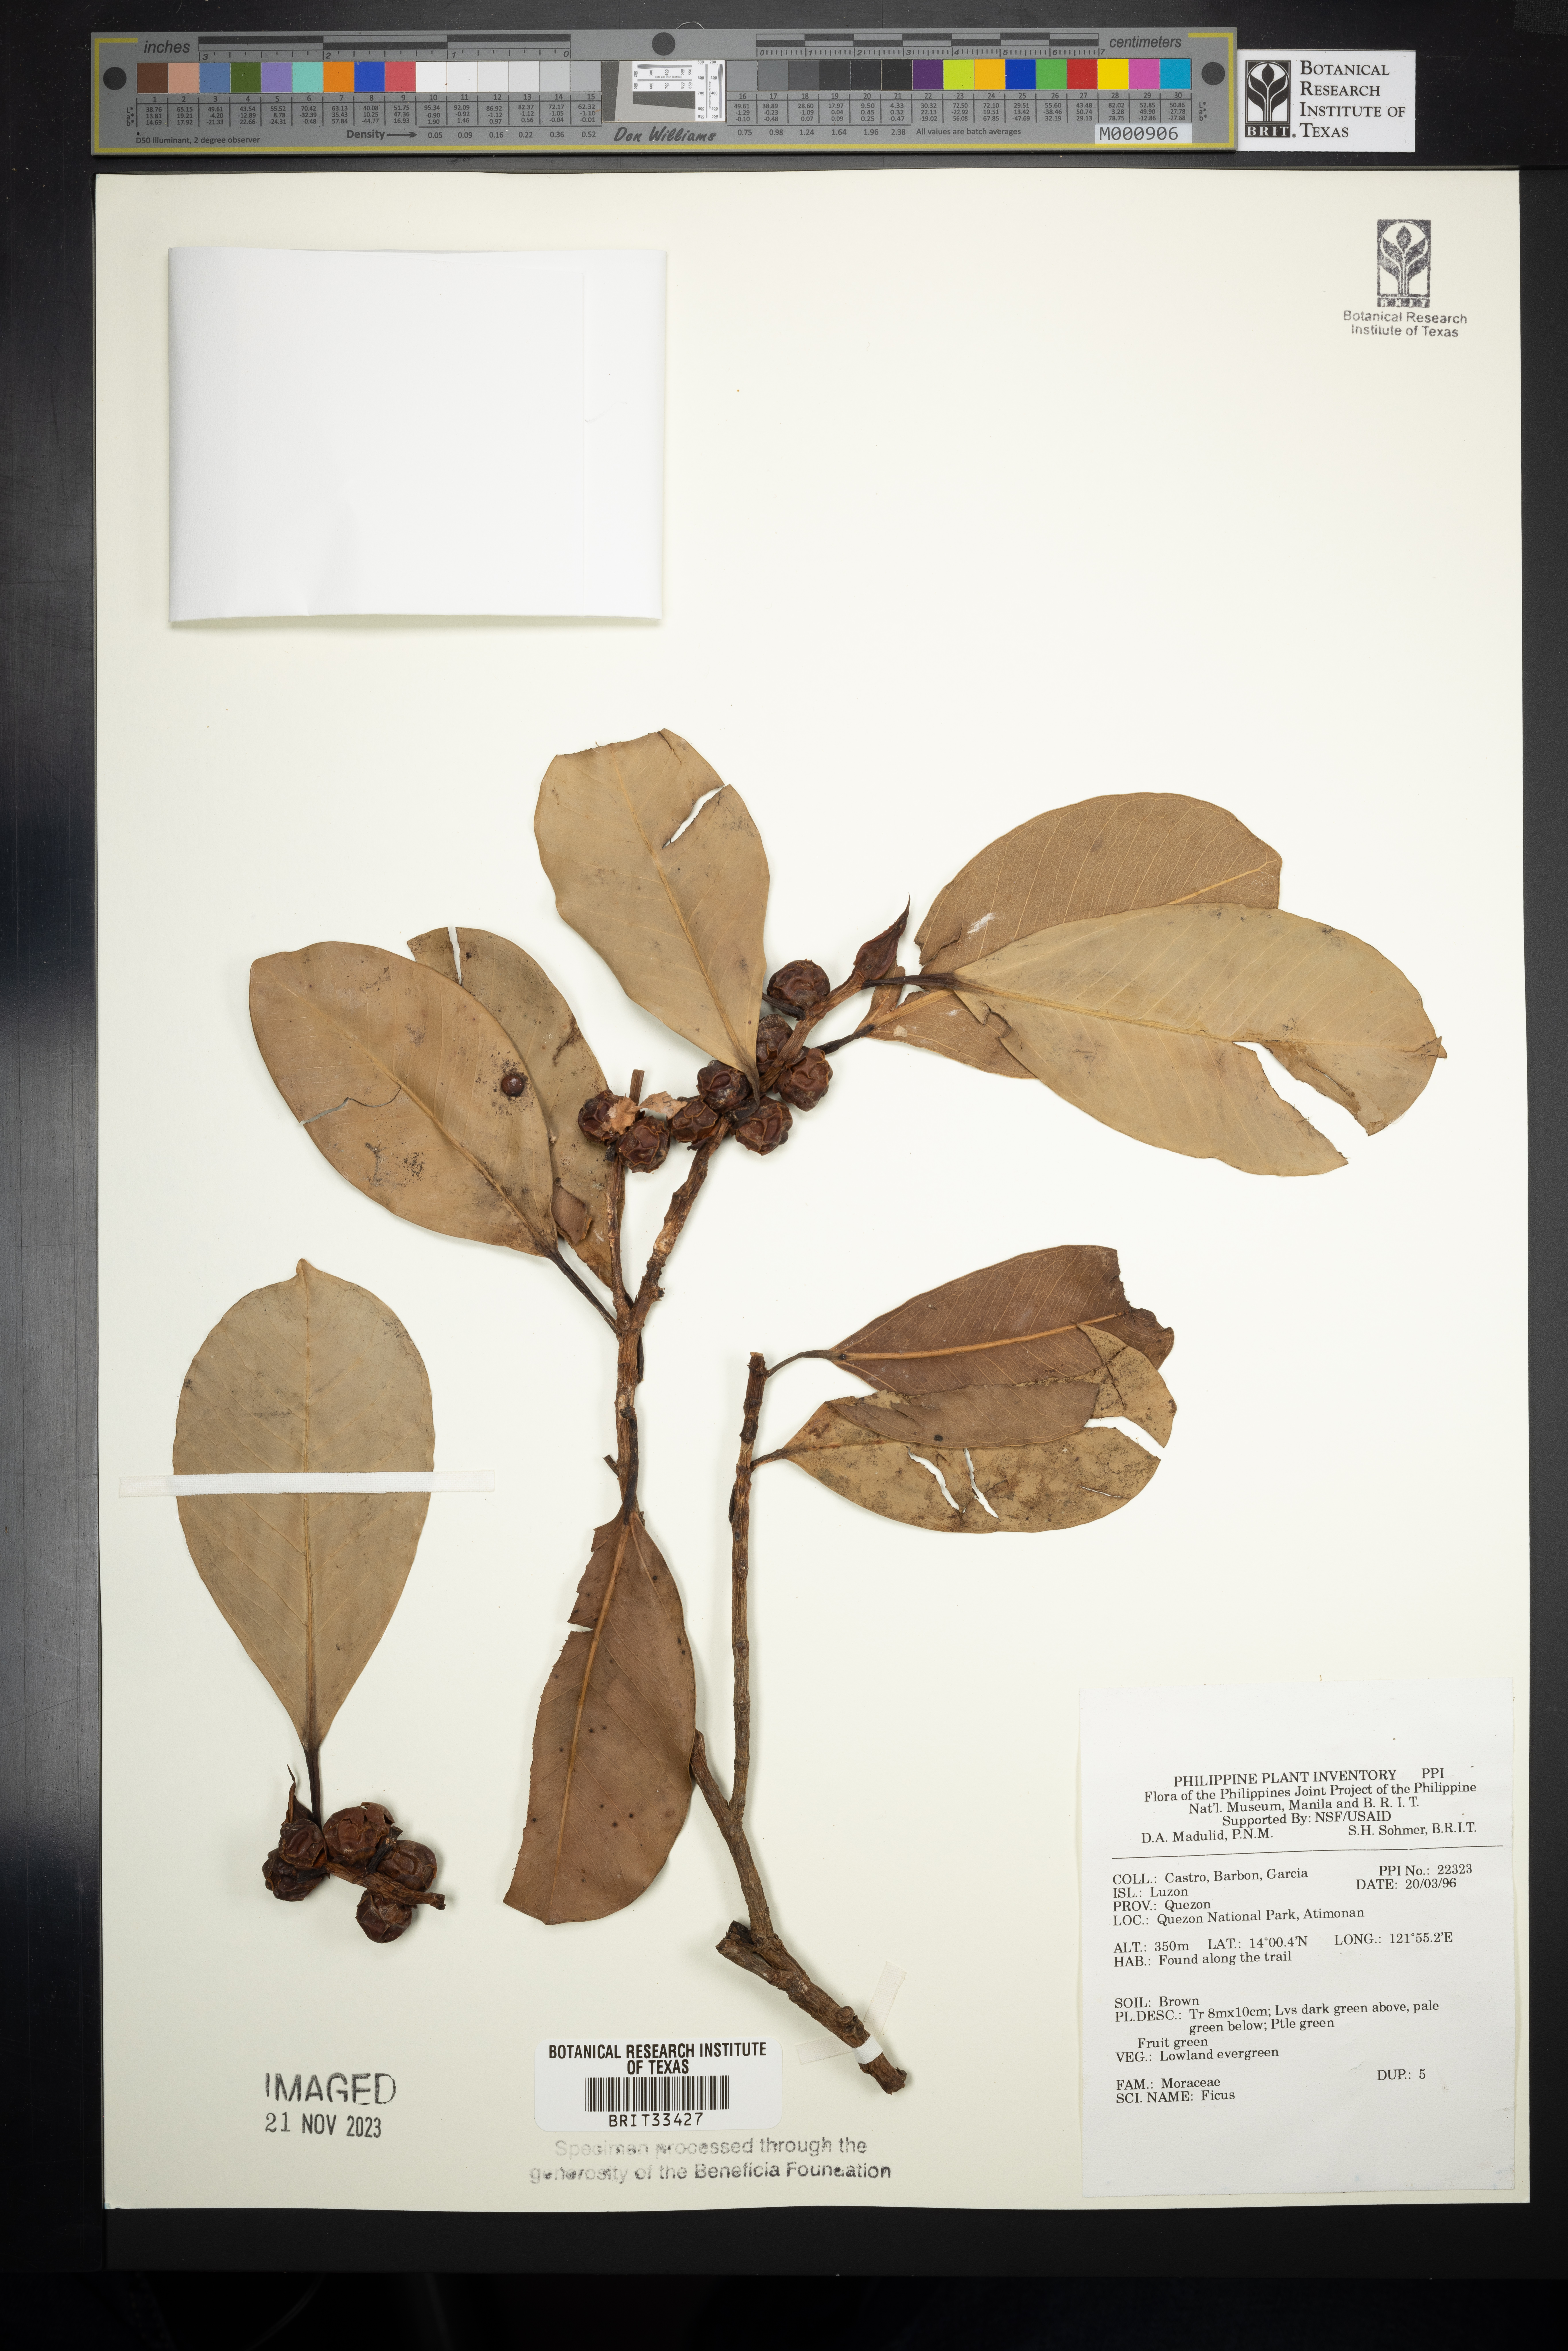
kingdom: Plantae
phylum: Tracheophyta
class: Magnoliopsida
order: Rosales
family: Moraceae
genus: Ficus
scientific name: Ficus
